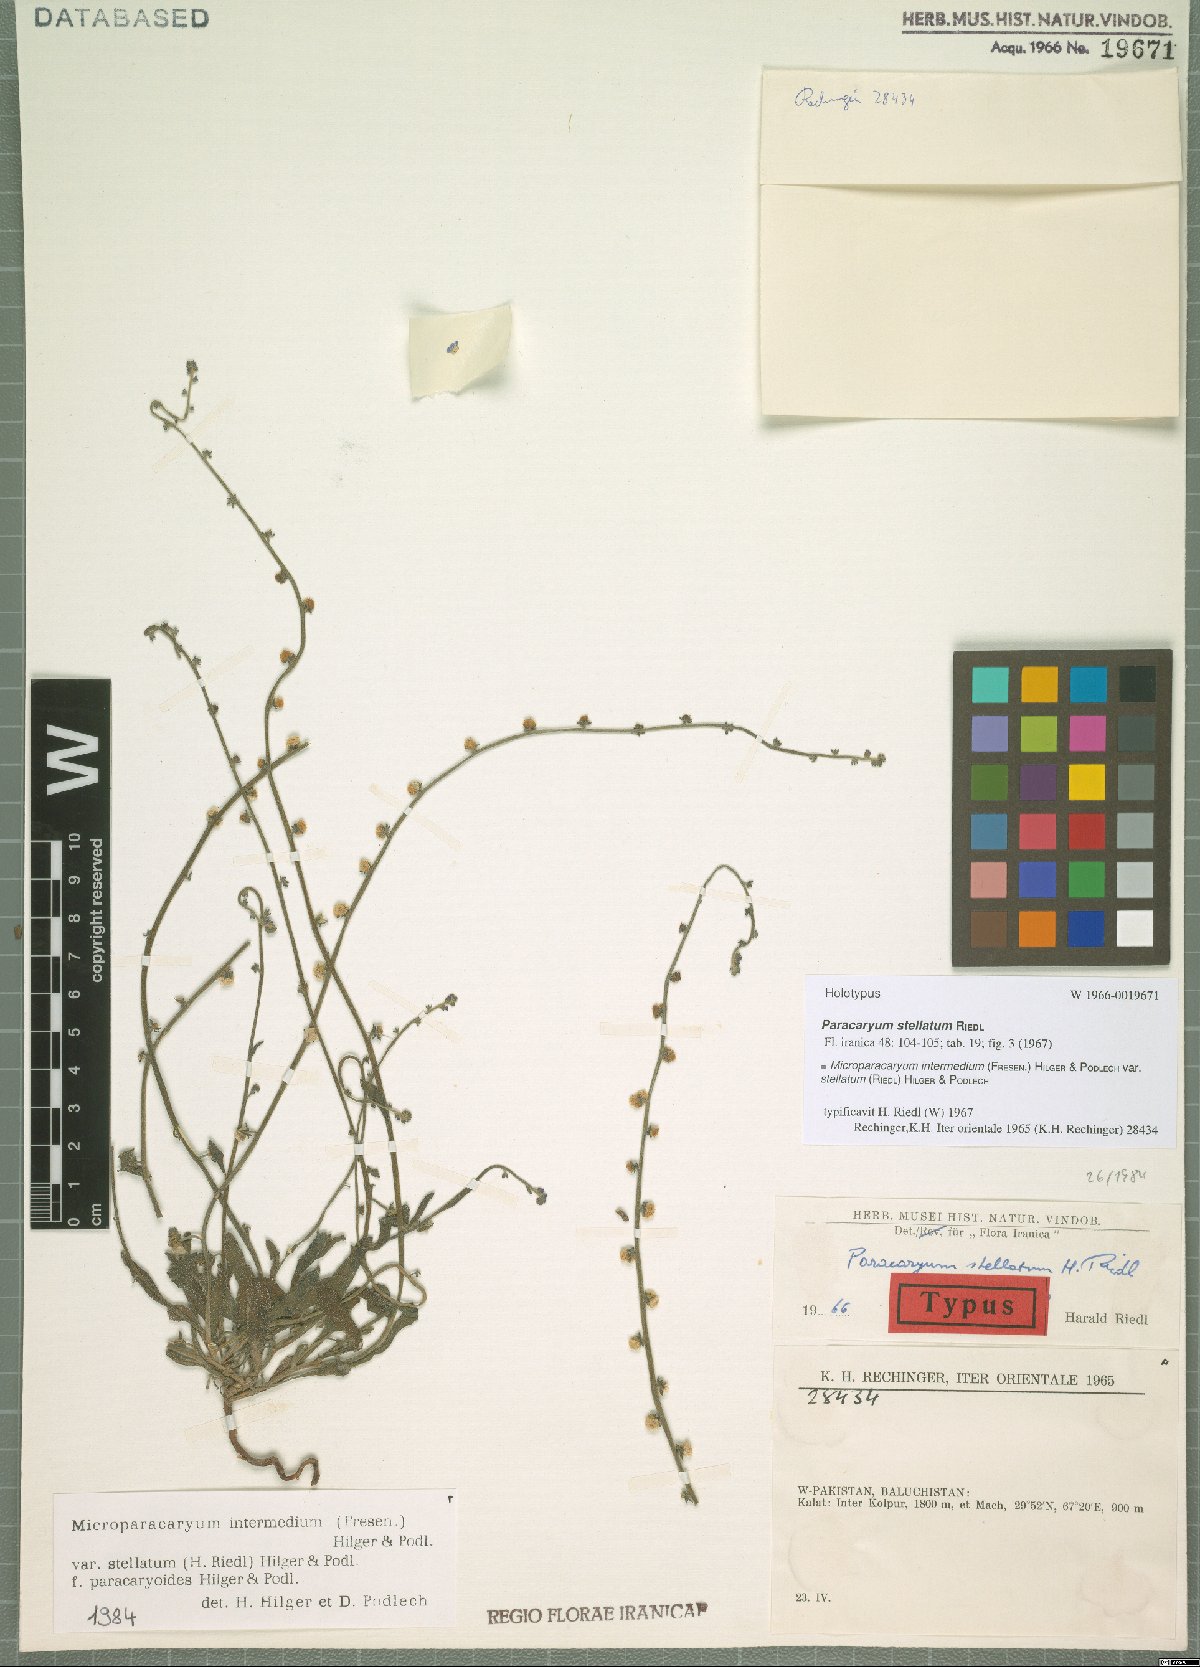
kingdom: Plantae
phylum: Tracheophyta
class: Magnoliopsida
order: Boraginales
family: Boraginaceae
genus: Microparacaryum
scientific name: Microparacaryum intermedium
